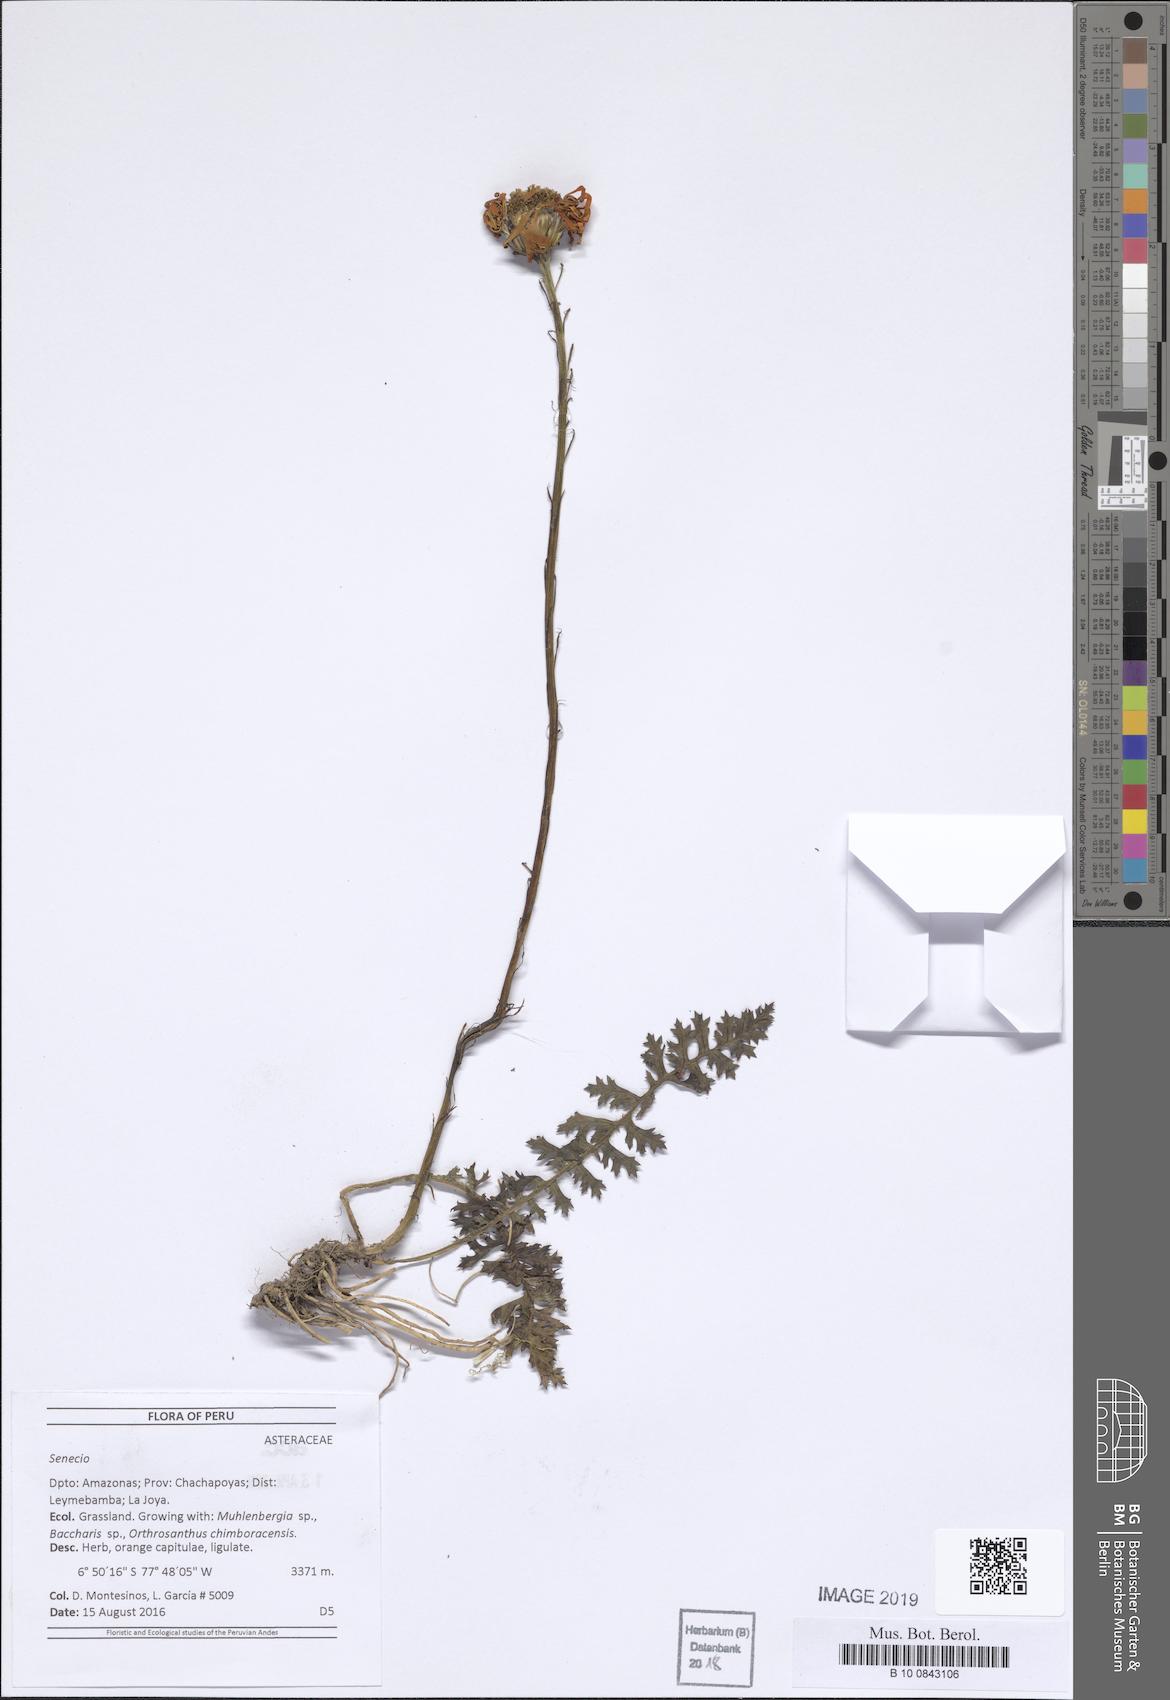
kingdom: Plantae
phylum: Tracheophyta
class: Magnoliopsida
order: Asterales
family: Asteraceae
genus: Dorobaea
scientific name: Dorobaea pimpinellifolia
